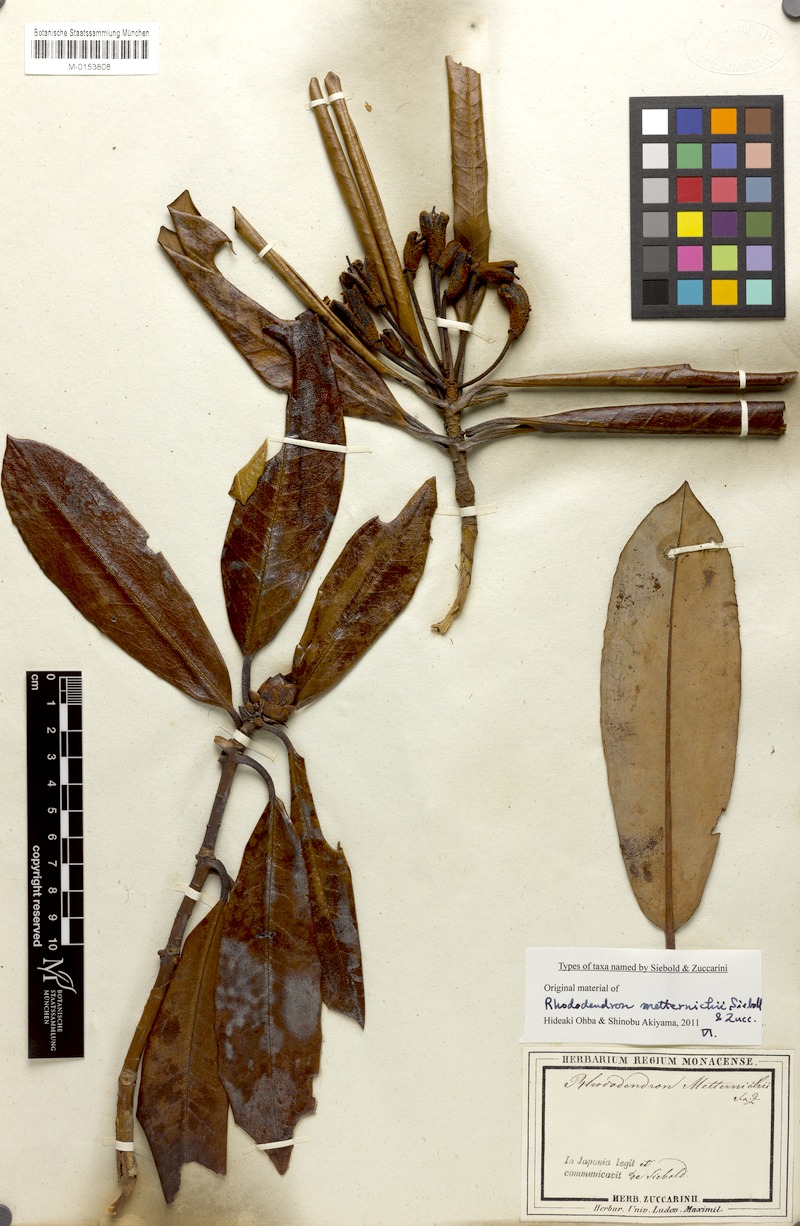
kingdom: Plantae
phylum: Tracheophyta
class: Magnoliopsida
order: Ericales
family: Ericaceae
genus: Rhododendron
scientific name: Rhododendron japonoheptamerum
